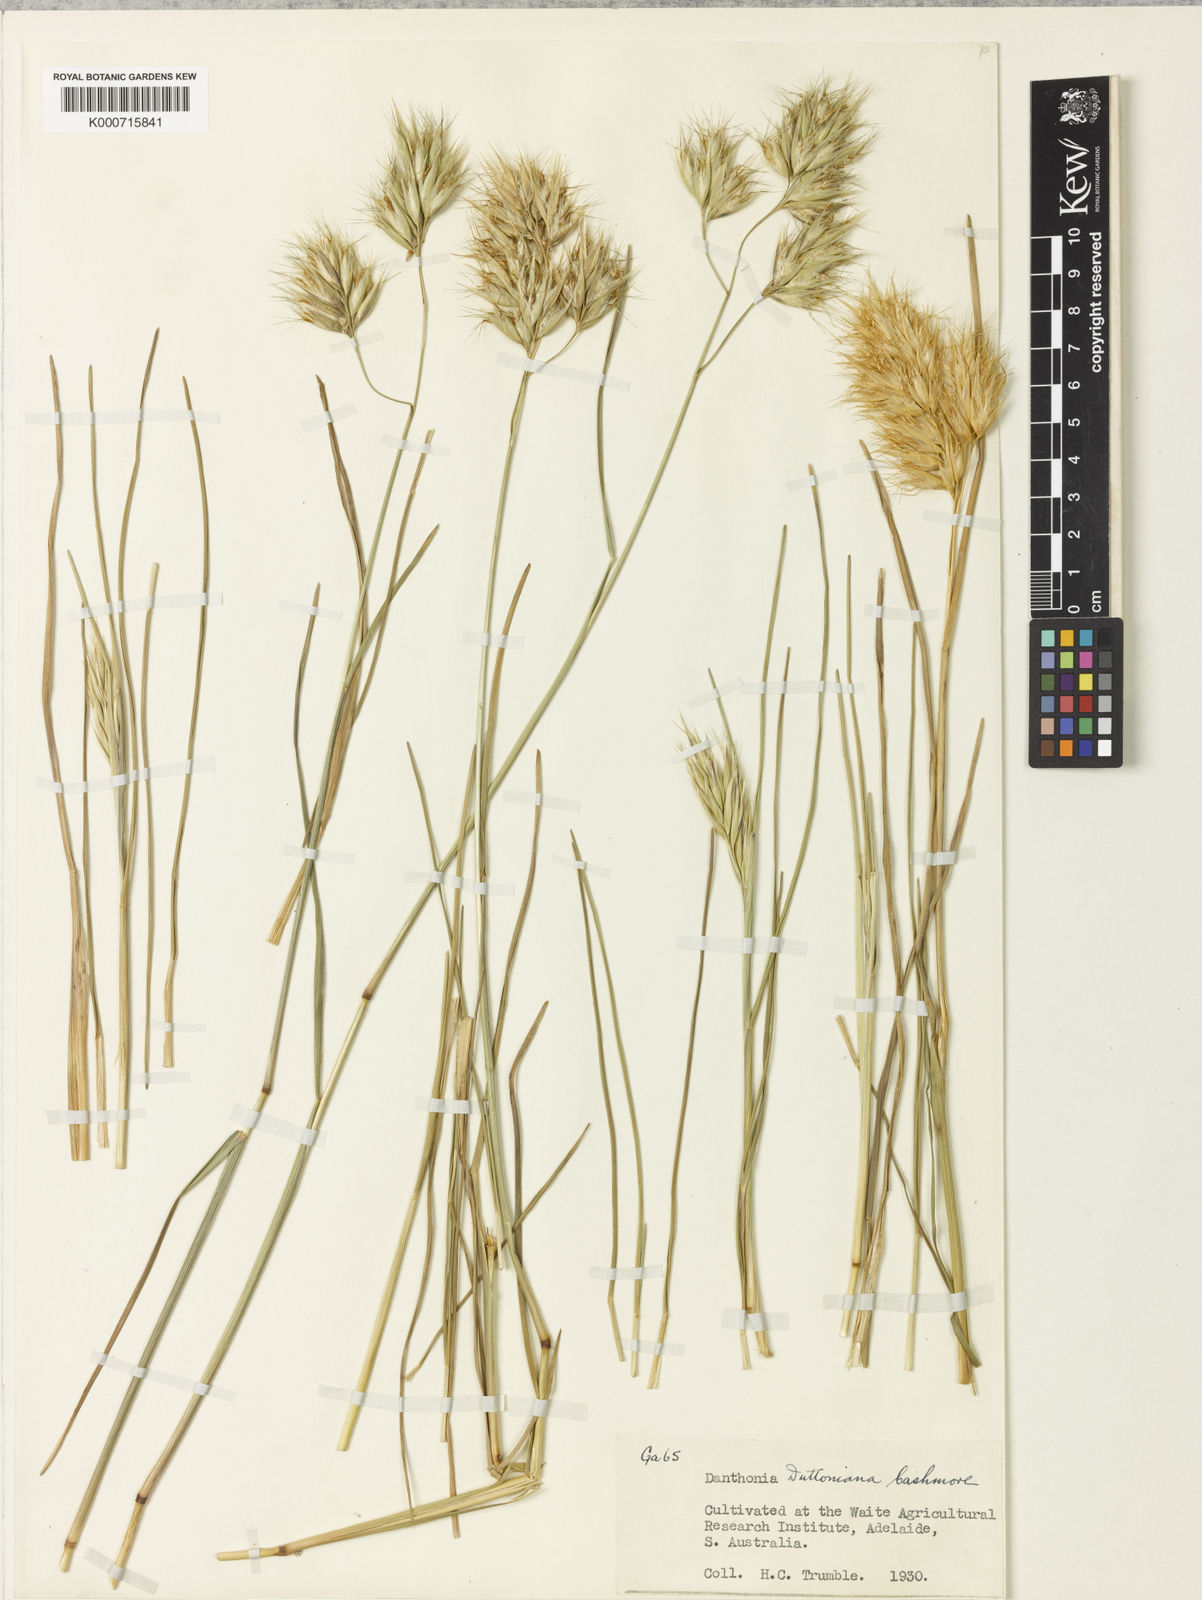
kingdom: Plantae
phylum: Tracheophyta
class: Liliopsida
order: Poales
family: Poaceae
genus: Rytidosperma
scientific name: Rytidosperma duttonianum
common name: Brown-black wallaby grass
